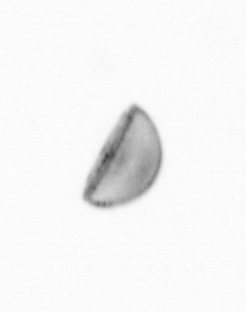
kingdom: Chromista
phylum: Ochrophyta
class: Bacillariophyceae
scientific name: Bacillariophyceae
